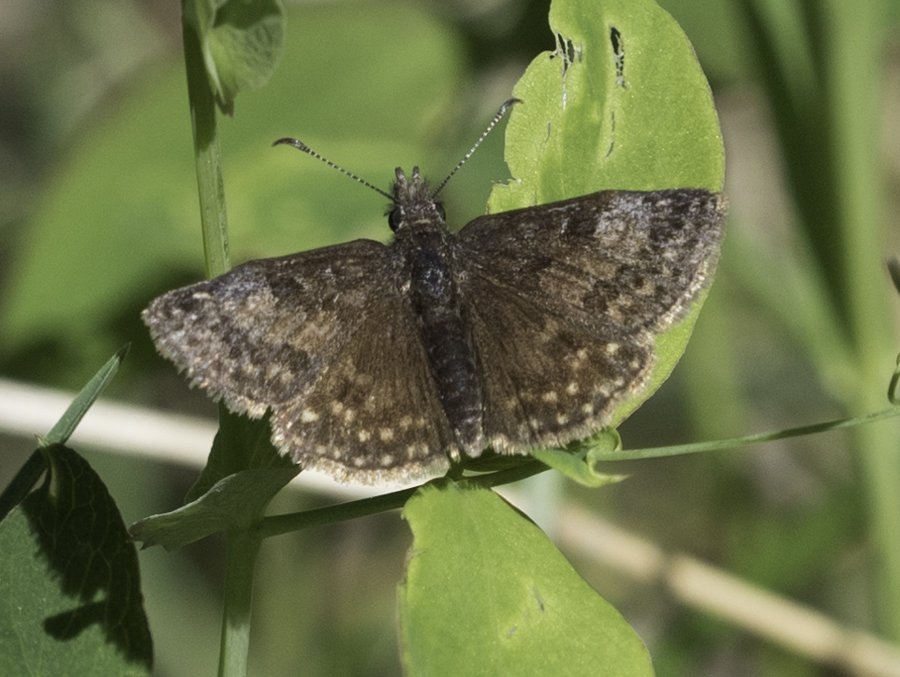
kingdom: Animalia
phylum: Arthropoda
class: Insecta
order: Lepidoptera
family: Hesperiidae
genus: Gesta
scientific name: Gesta
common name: Persius Duskywing
